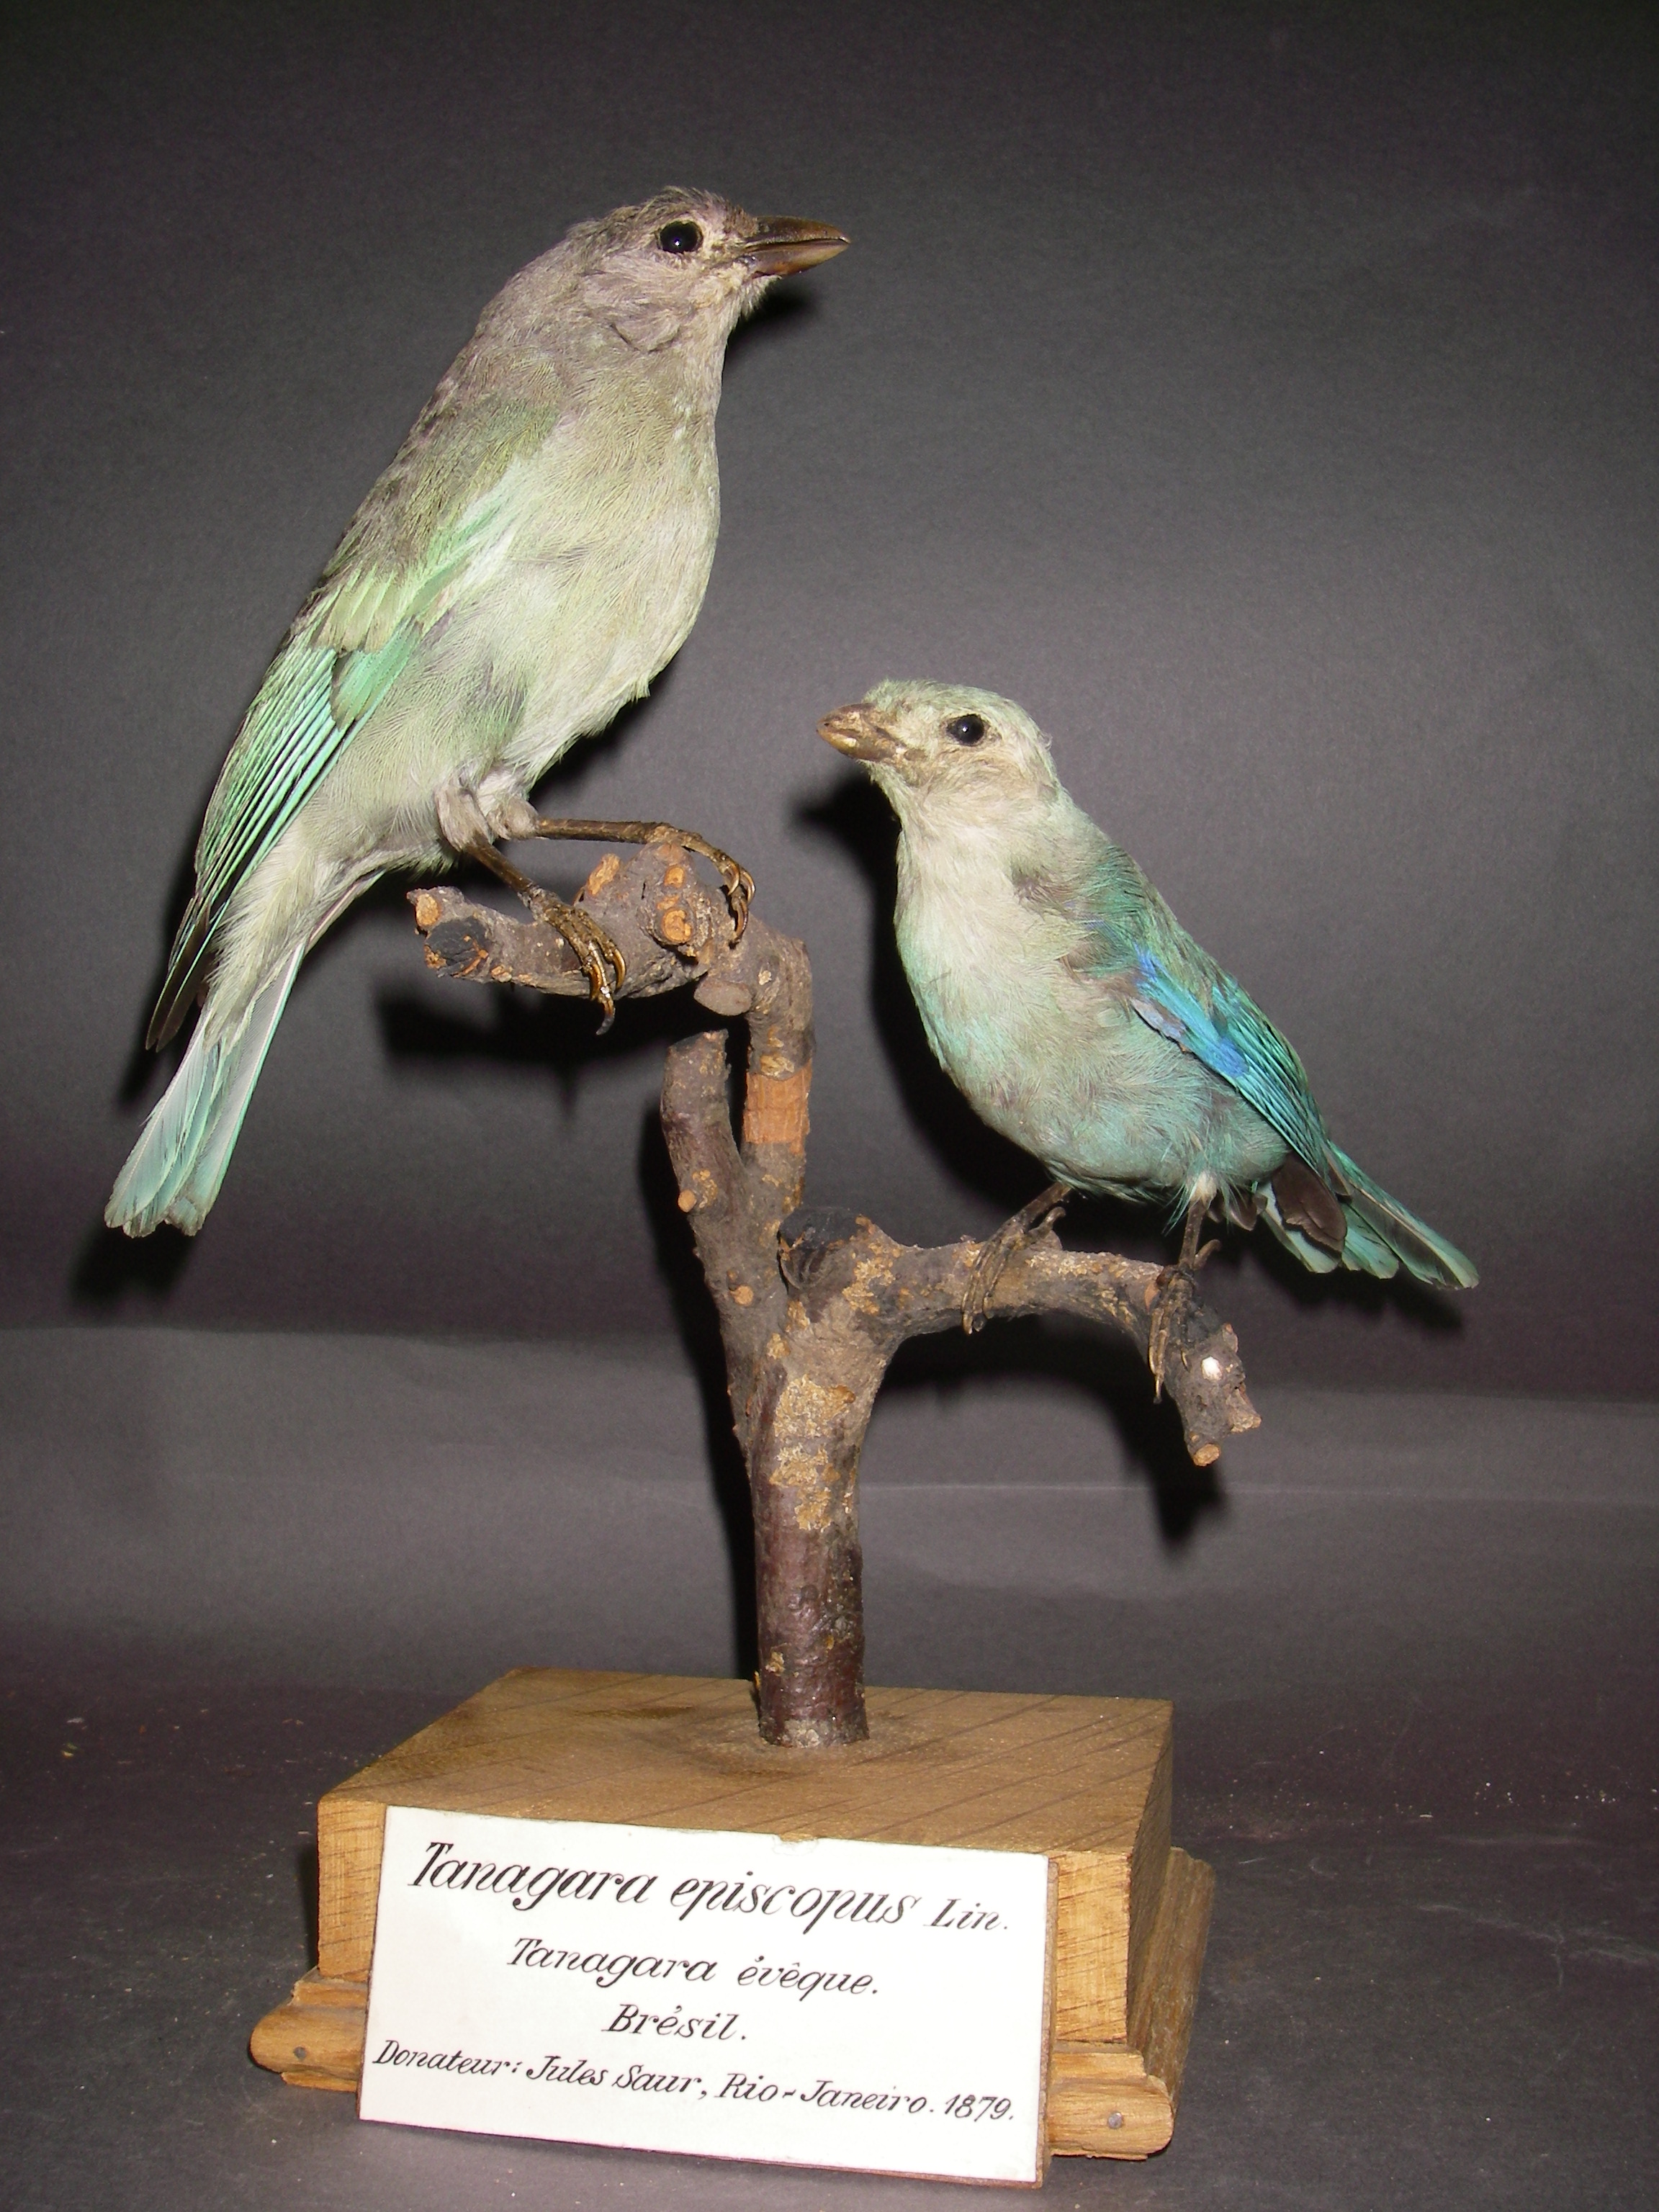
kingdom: Animalia
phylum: Chordata
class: Aves
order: Passeriformes
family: Thraupidae
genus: Thraupis
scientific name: Thraupis episcopus
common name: Blue-grey tanager
